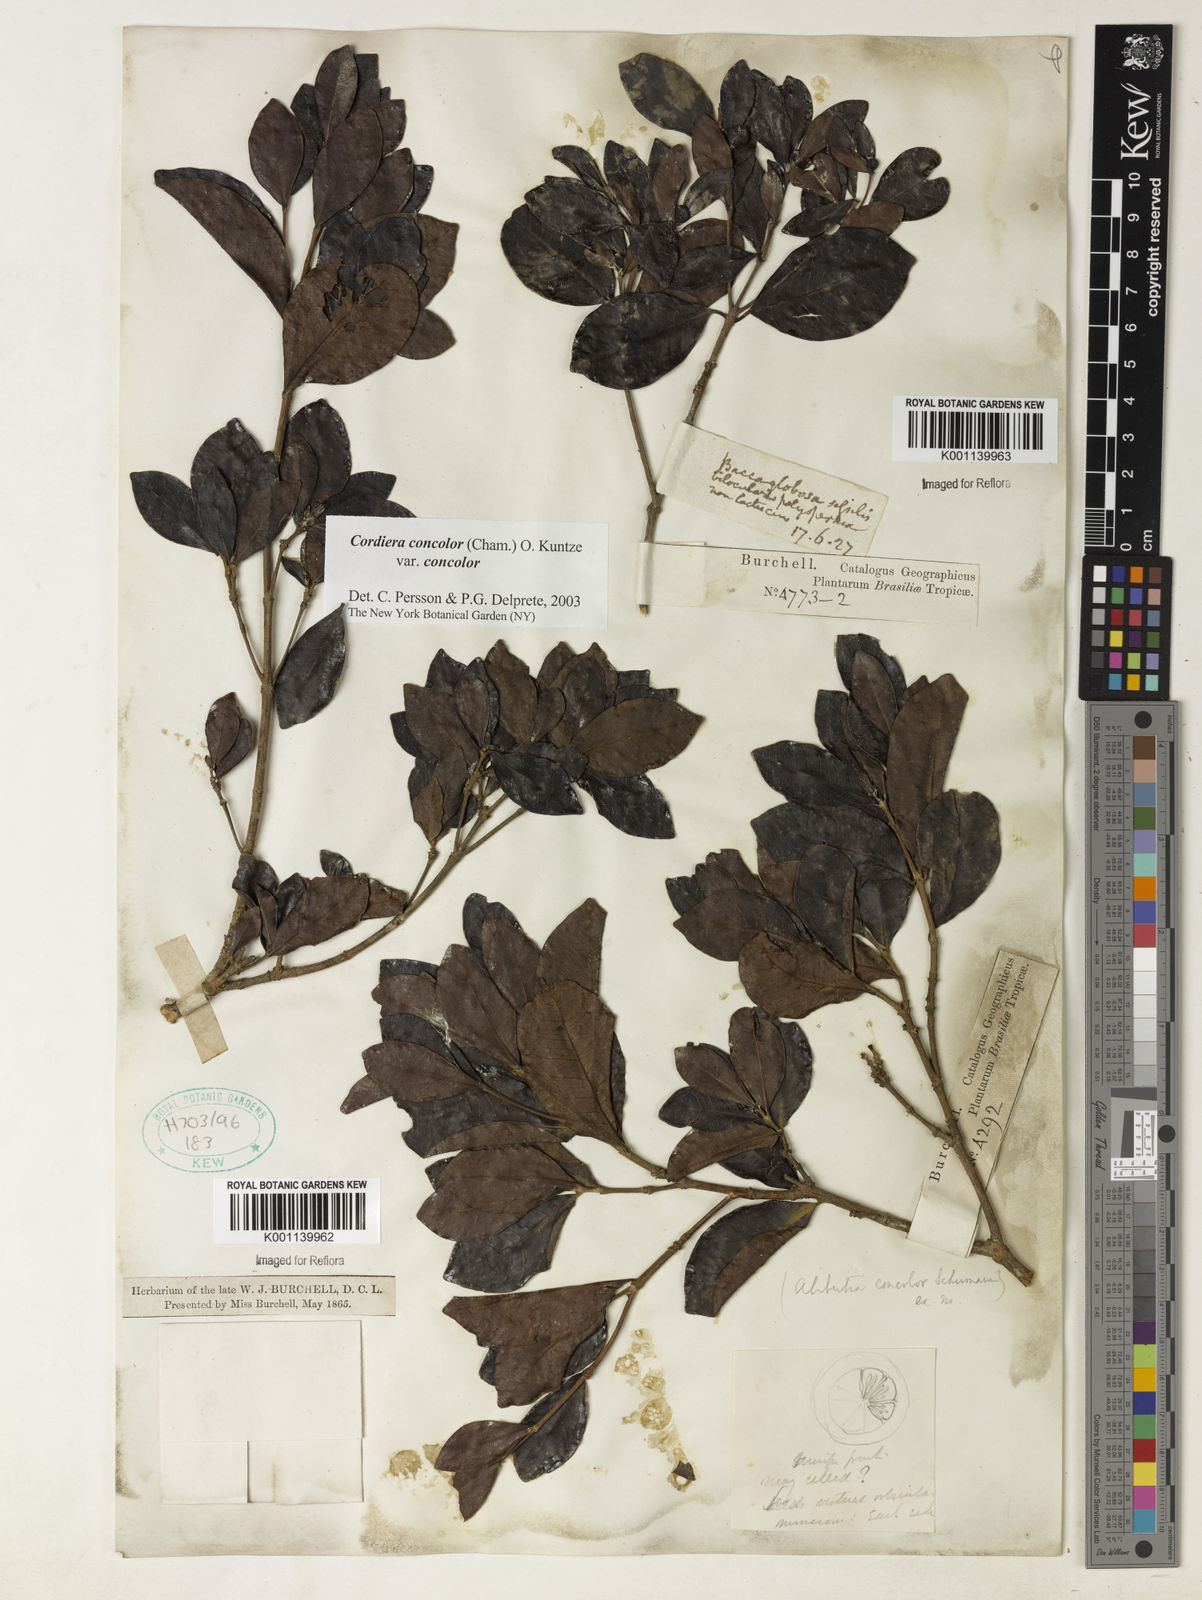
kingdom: Plantae
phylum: Tracheophyta
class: Magnoliopsida
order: Gentianales
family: Rubiaceae
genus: Cordiera
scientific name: Cordiera concolor
